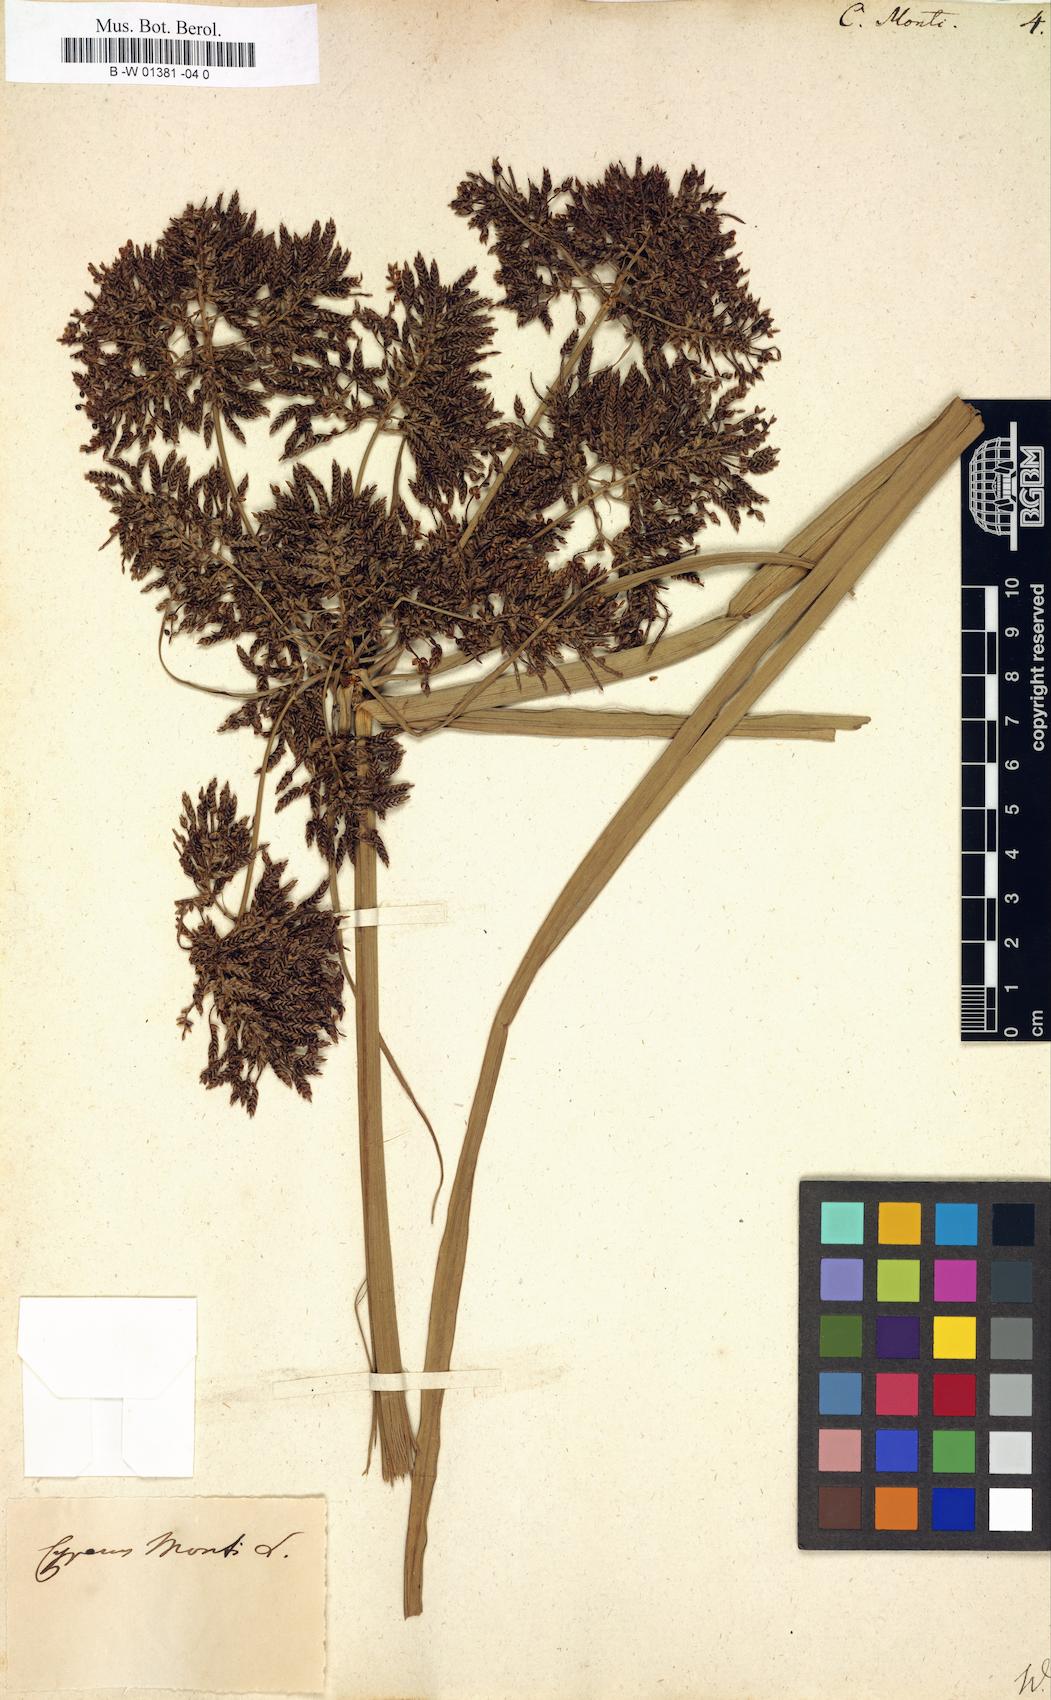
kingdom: Plantae
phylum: Tracheophyta
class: Liliopsida
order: Poales
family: Cyperaceae
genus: Cyperus
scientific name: Cyperus serotinus
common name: Tidalmarsh flatsedge
